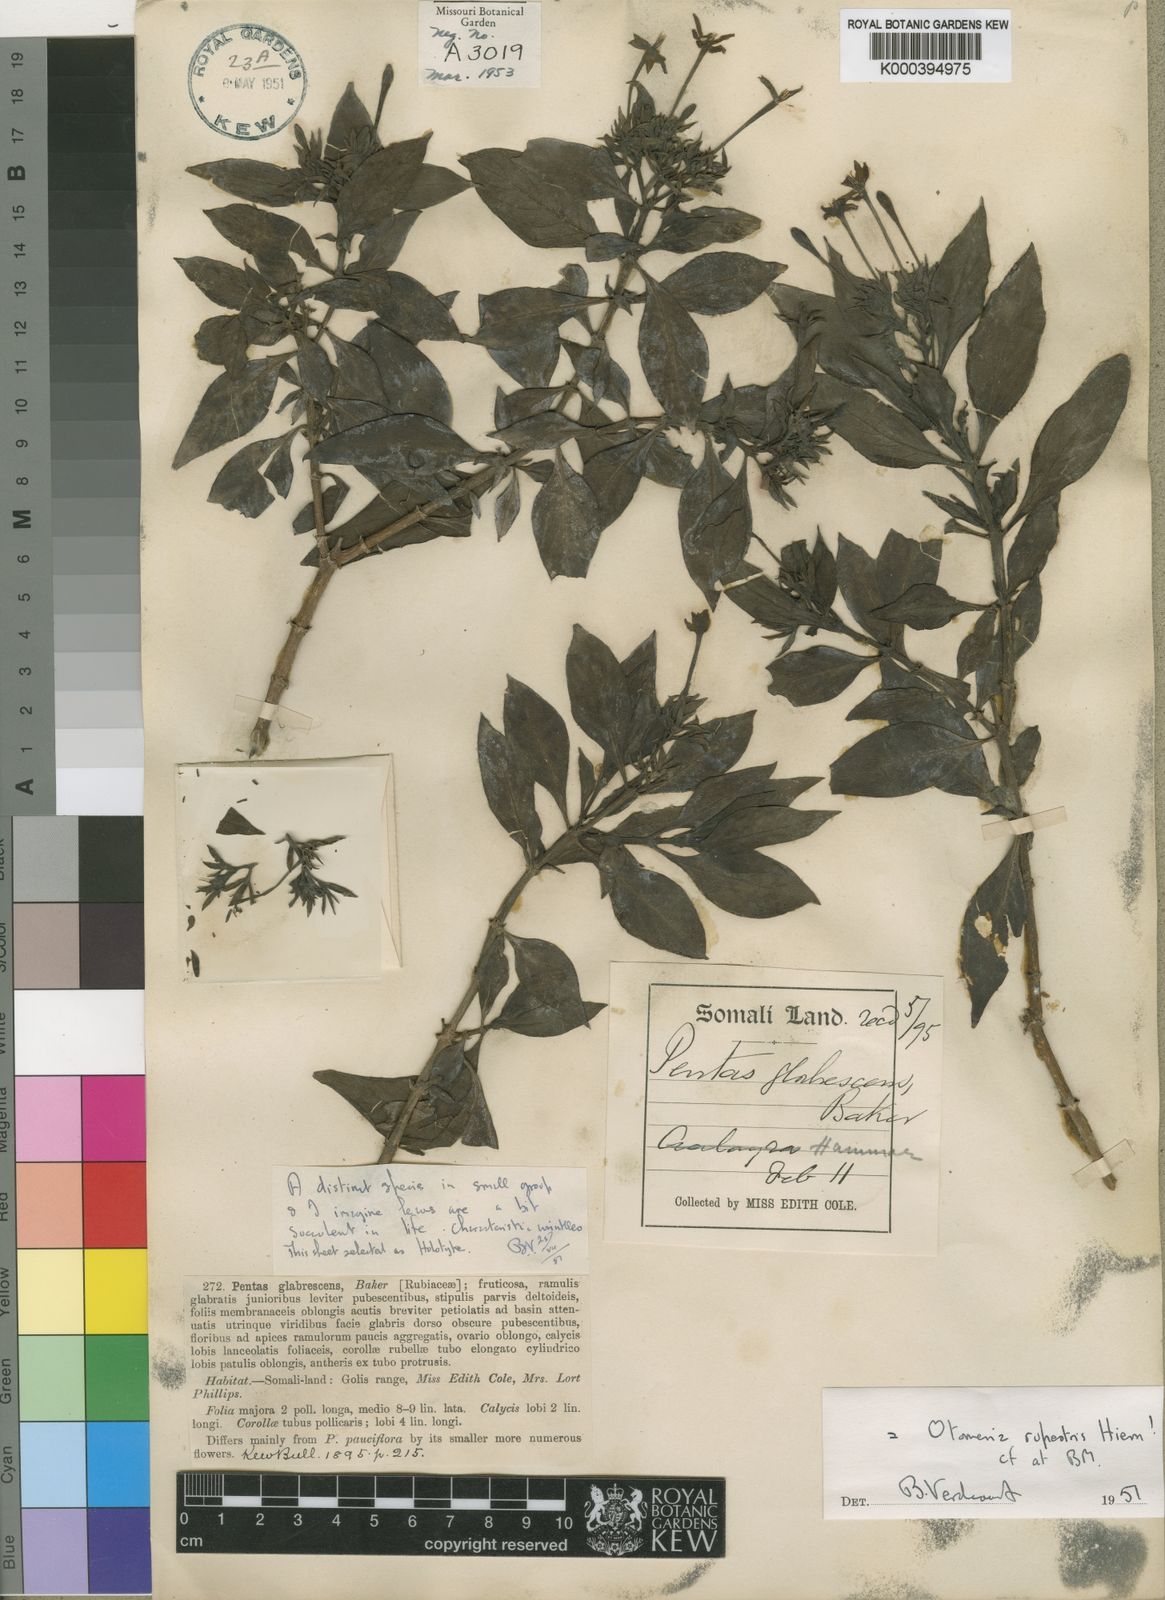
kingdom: Plantae
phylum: Tracheophyta
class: Magnoliopsida
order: Gentianales
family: Rubiaceae
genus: Pentas
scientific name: Pentas glabrescens
